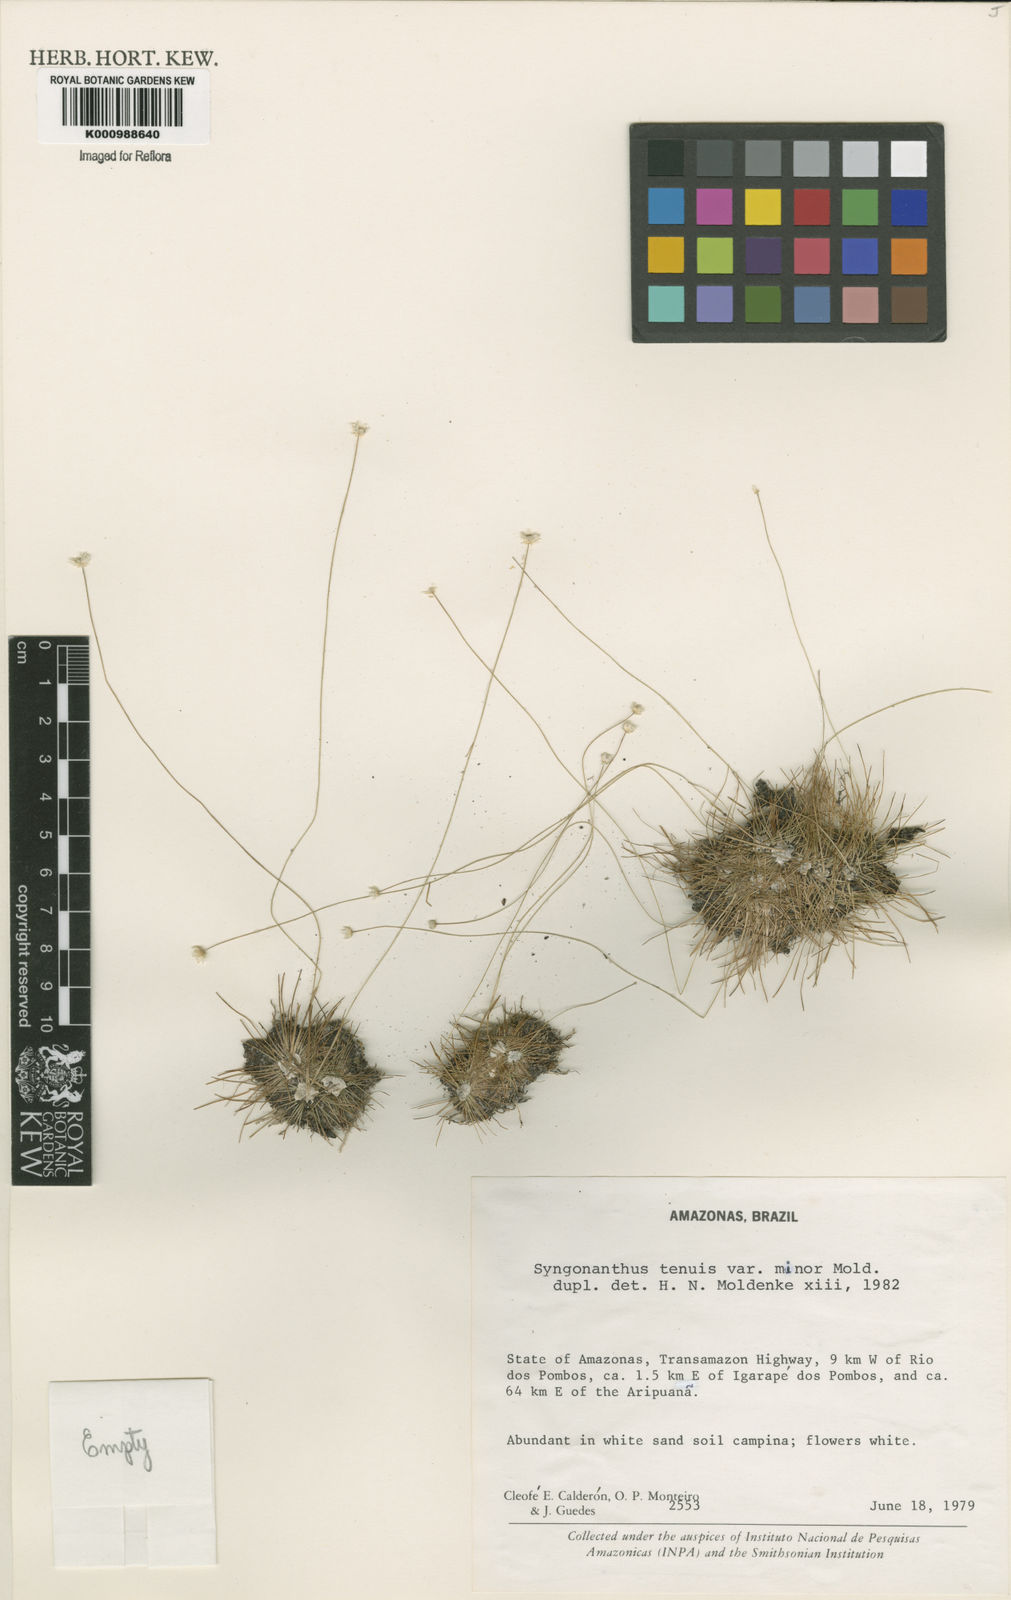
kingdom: Plantae
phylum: Tracheophyta
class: Liliopsida
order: Poales
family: Eriocaulaceae
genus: Syngonanthus
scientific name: Syngonanthus tenuis
